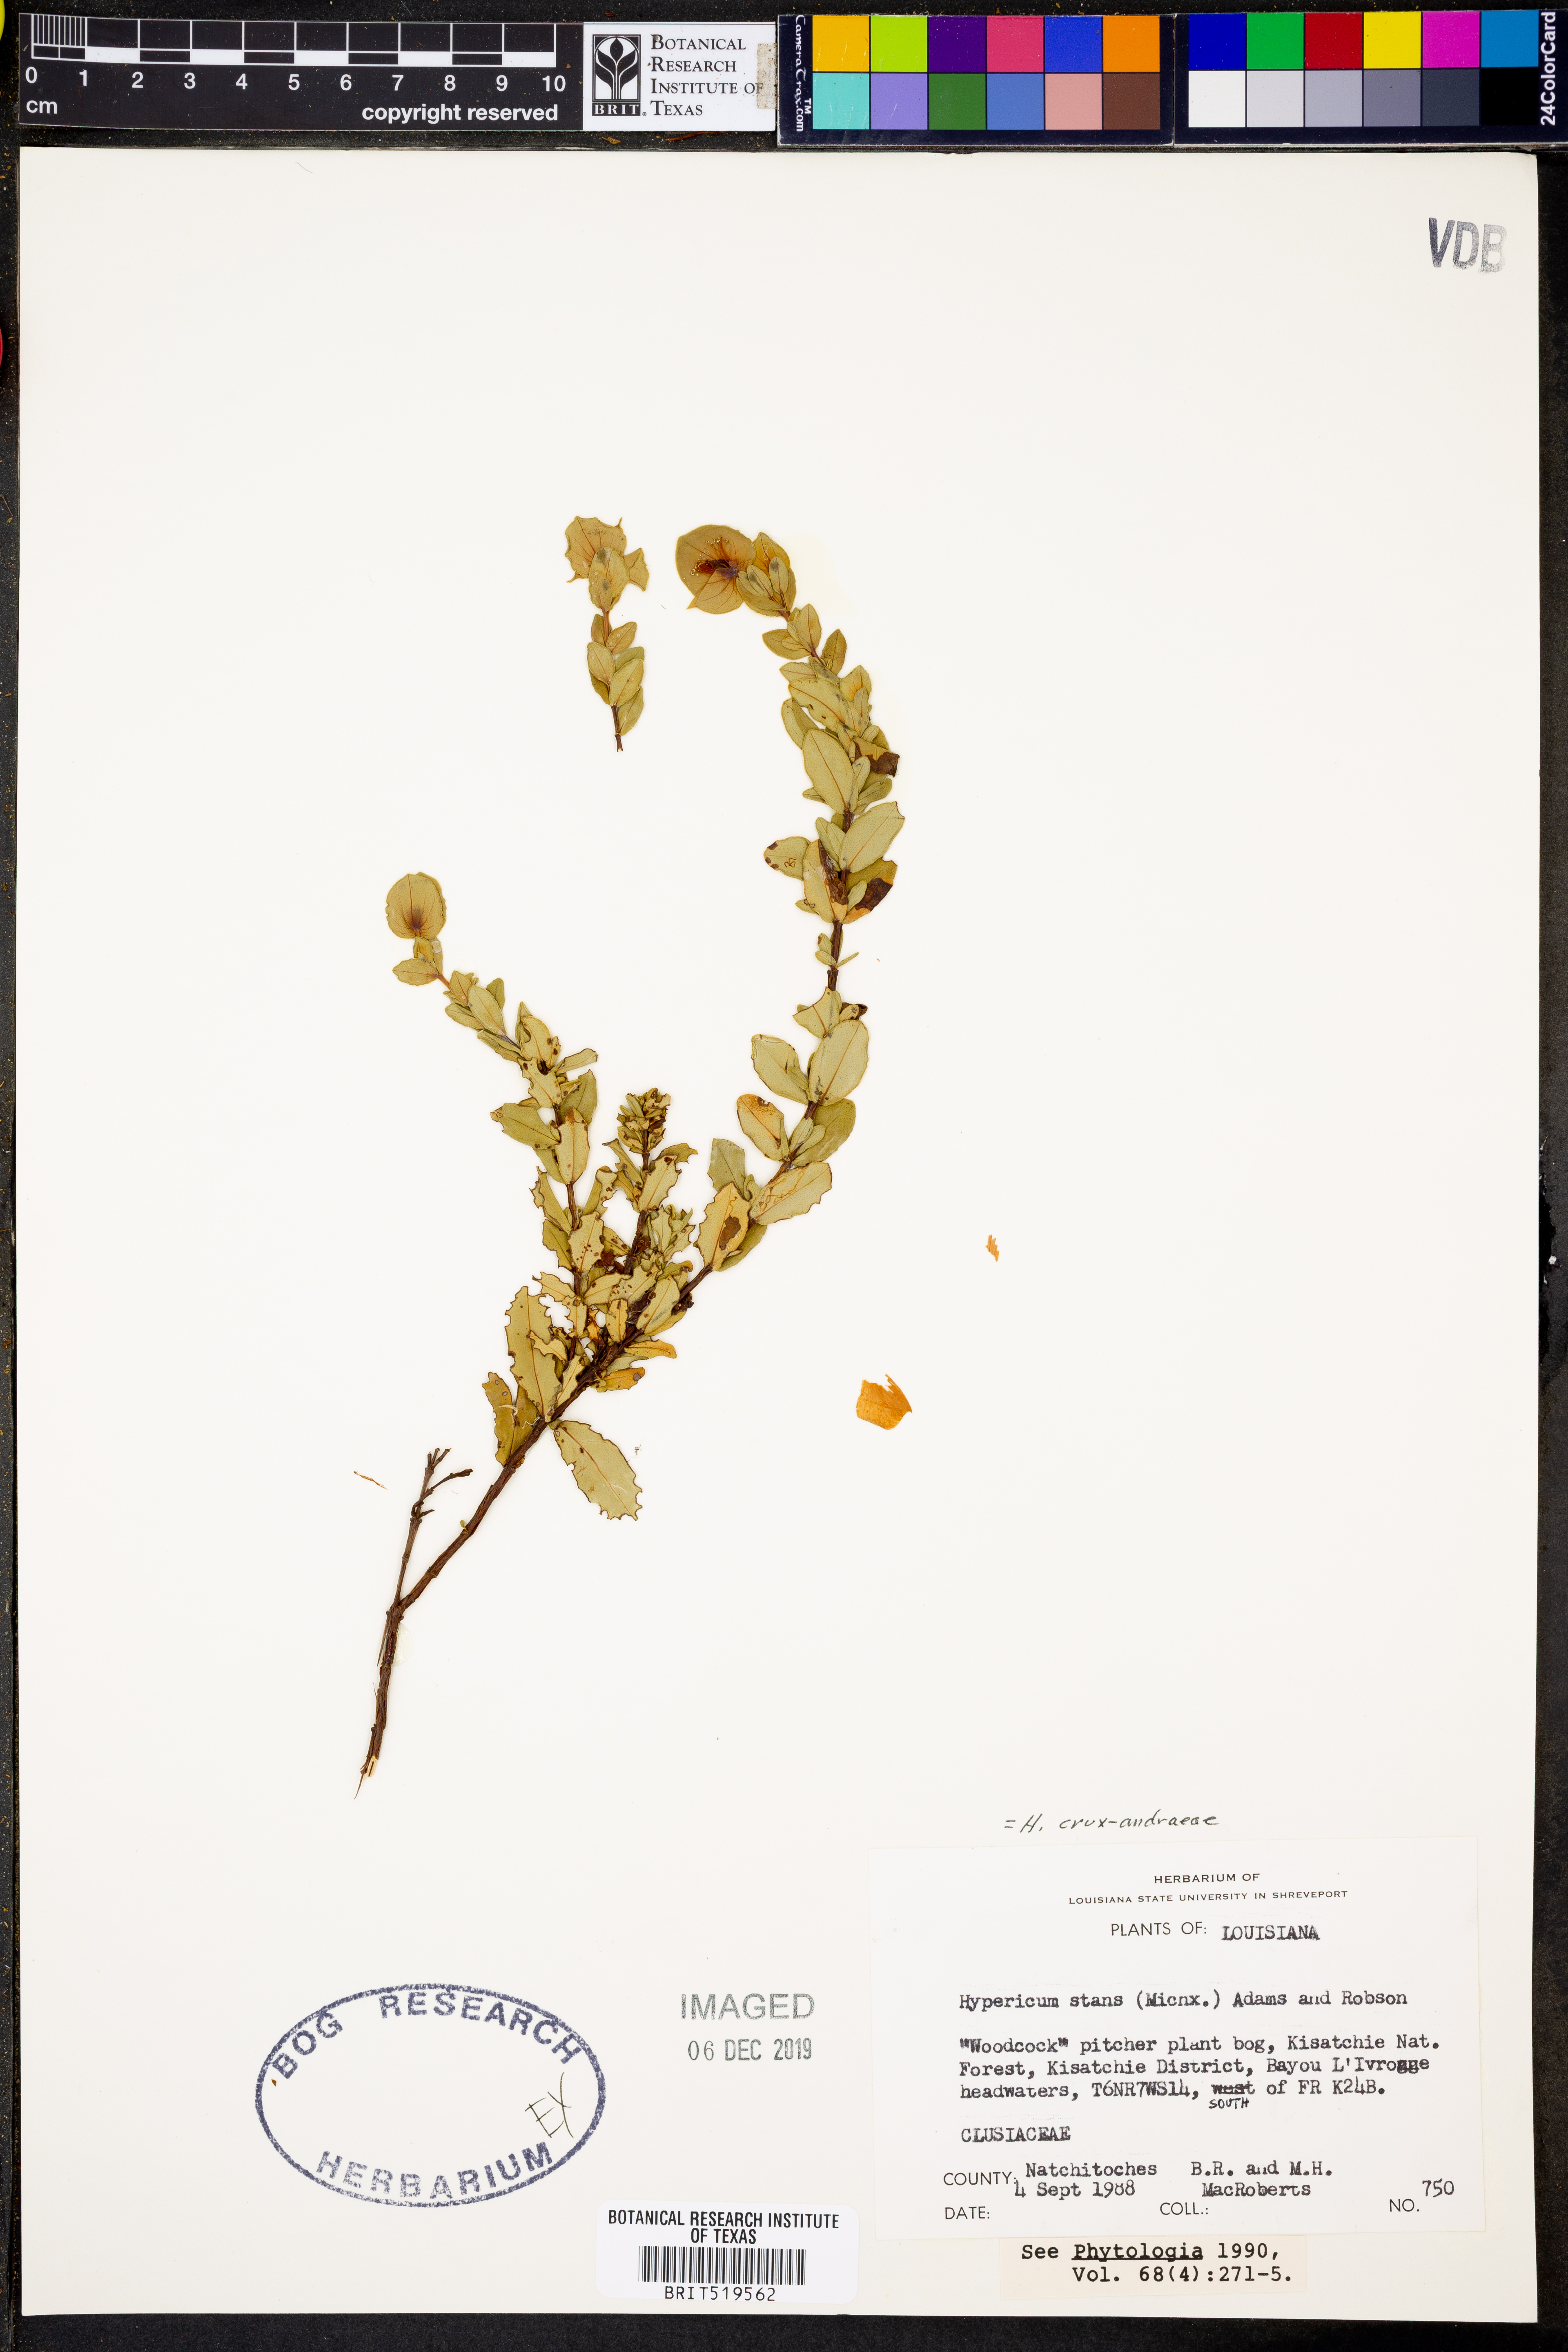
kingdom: Plantae
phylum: Tracheophyta
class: Magnoliopsida
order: Malpighiales
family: Hypericaceae
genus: Hypericum
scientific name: Hypericum crux-andreae
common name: St.-peter's-wort
